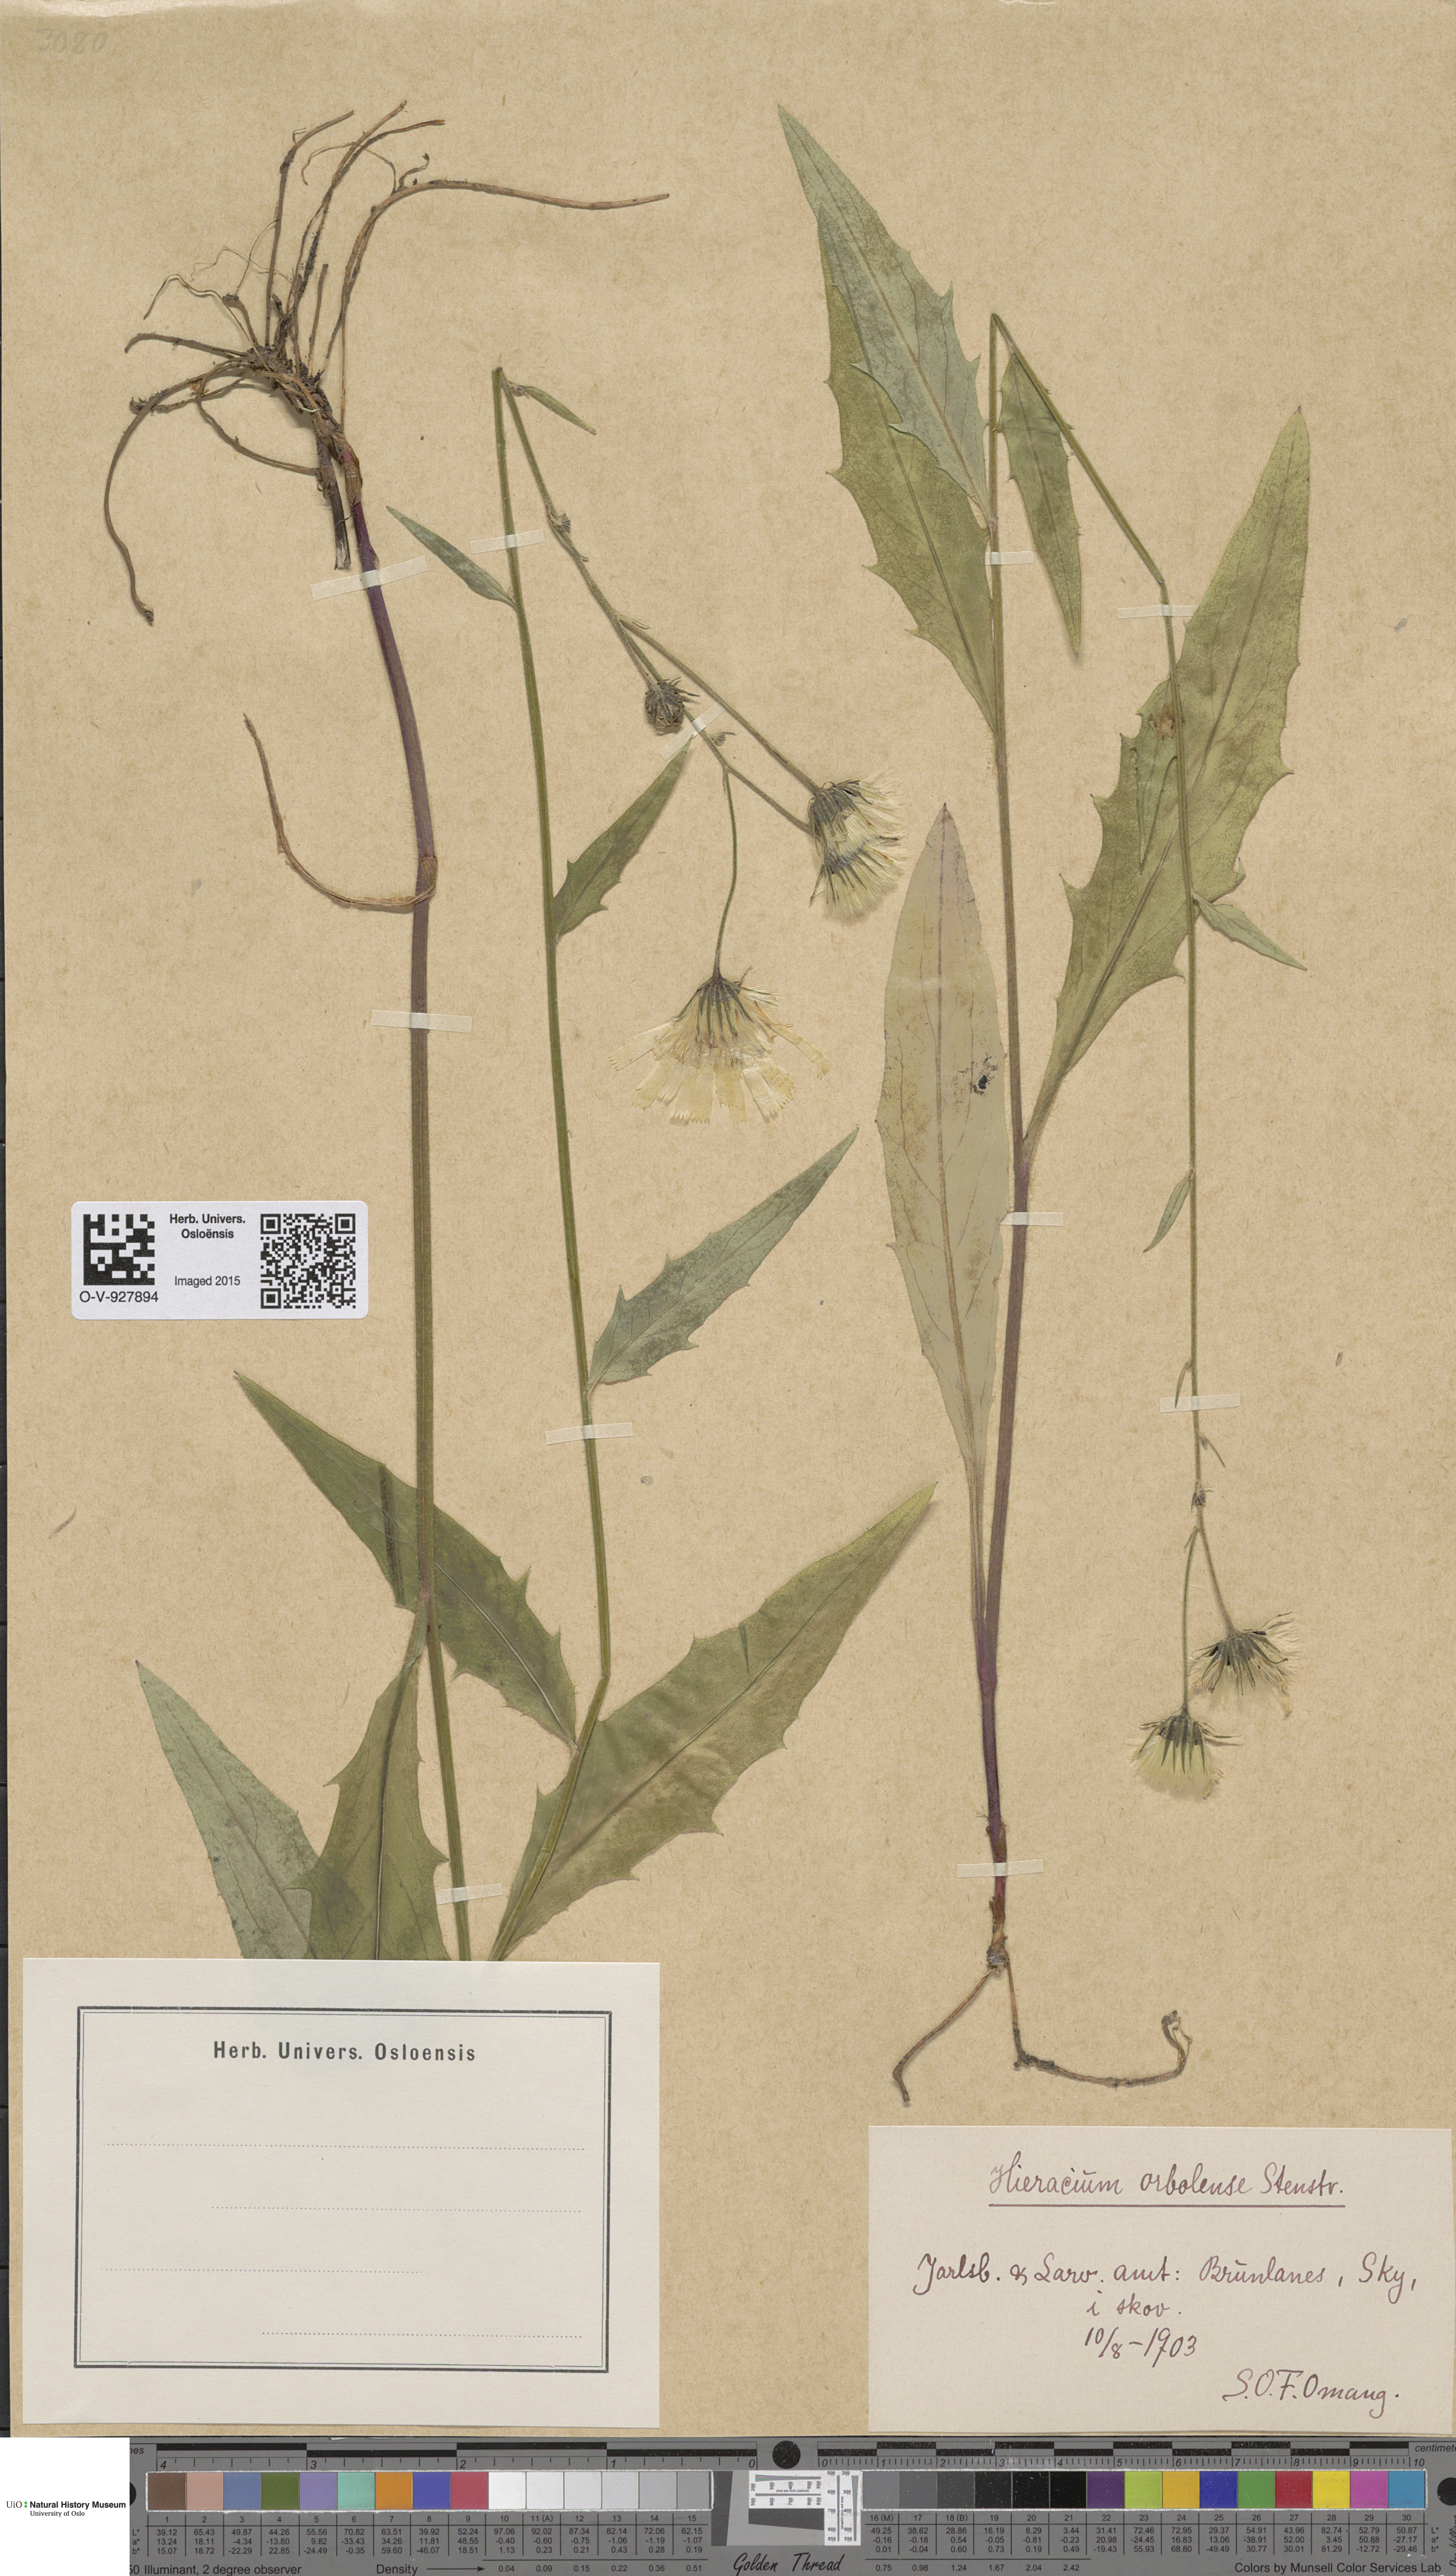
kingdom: Plantae
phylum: Tracheophyta
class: Magnoliopsida
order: Asterales
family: Asteraceae
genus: Hieracium
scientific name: Hieracium orbolense
